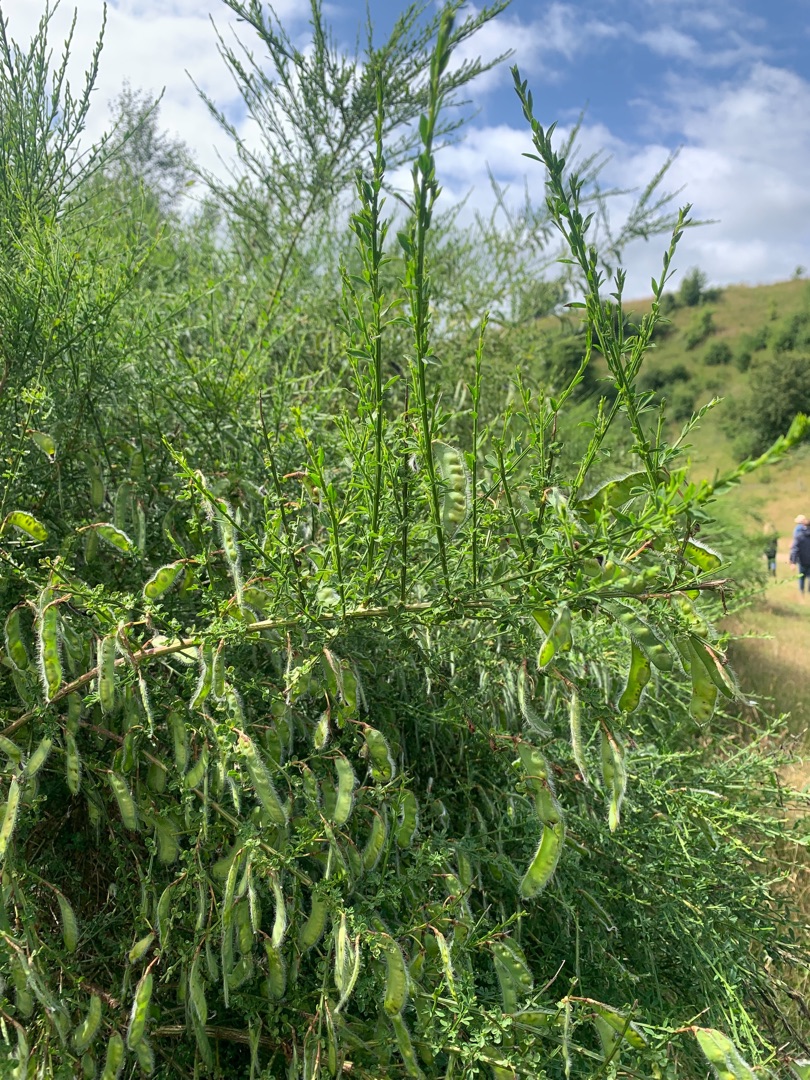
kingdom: Plantae
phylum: Tracheophyta
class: Magnoliopsida
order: Fabales
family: Fabaceae
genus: Cytisus
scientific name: Cytisus scoparius
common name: Almindelig gyvel
